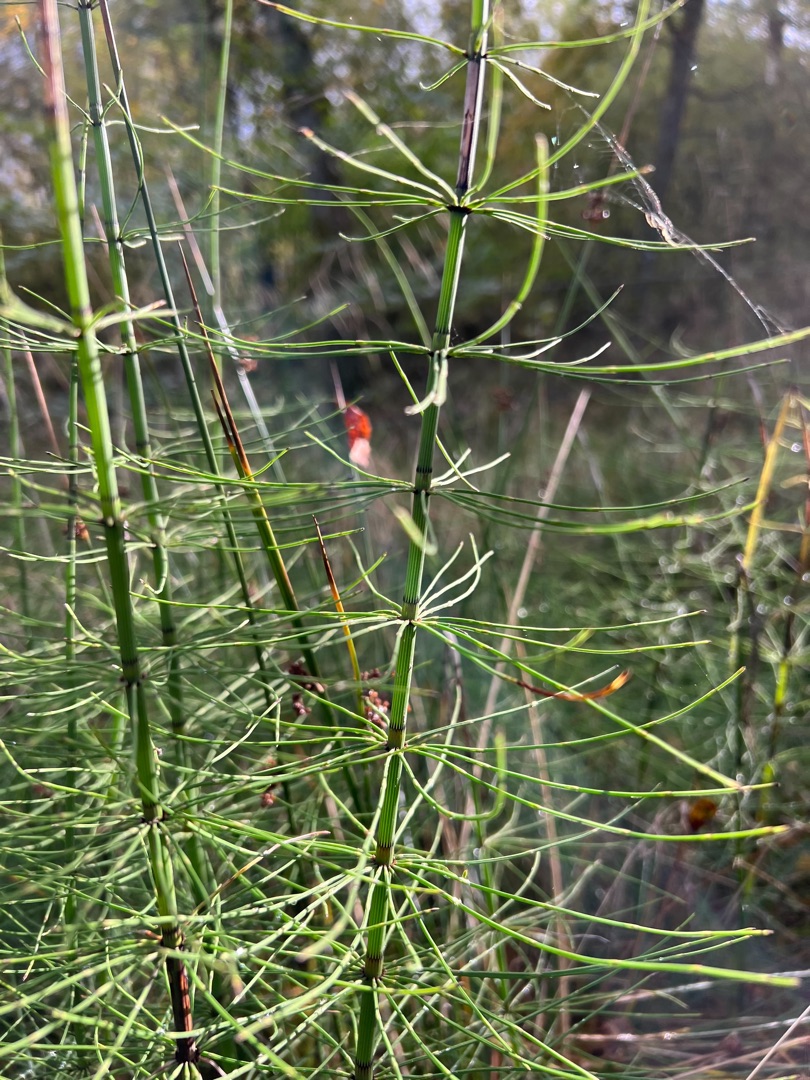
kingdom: Plantae
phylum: Tracheophyta
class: Polypodiopsida
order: Equisetales
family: Equisetaceae
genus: Equisetum
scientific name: Equisetum fluviatile
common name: Dynd-padderok
